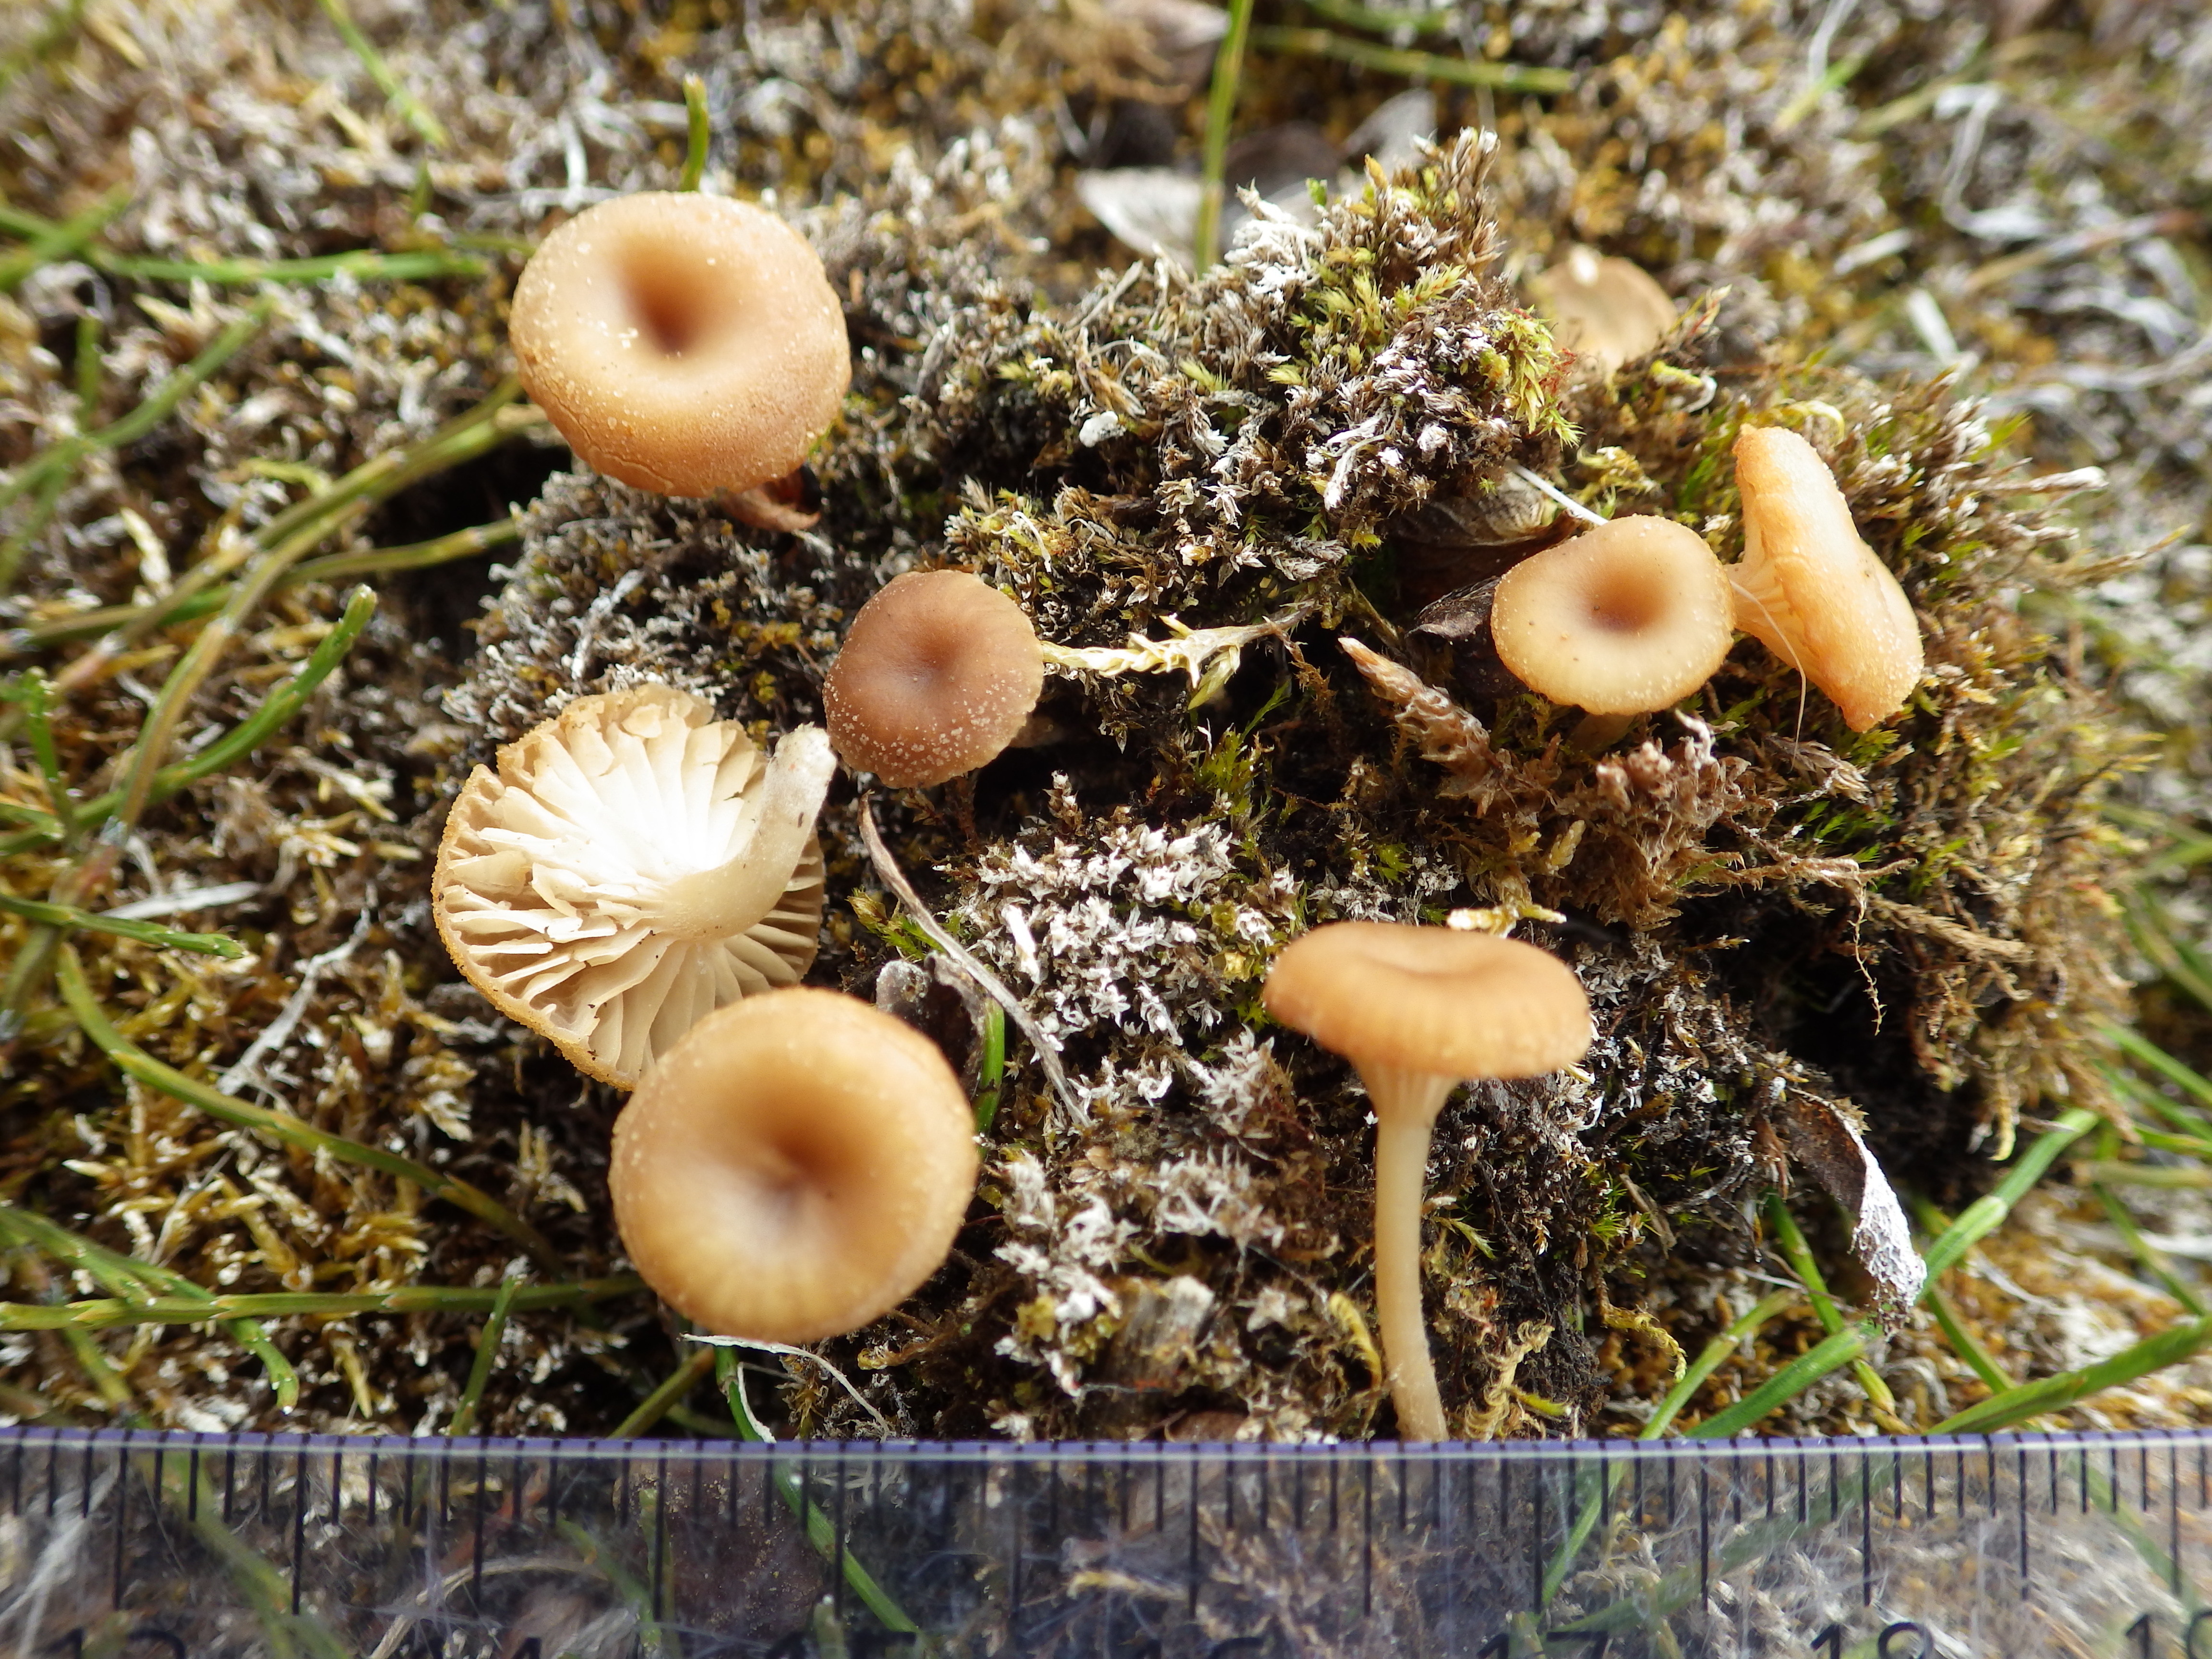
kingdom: Fungi
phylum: Basidiomycota
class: Agaricomycetes
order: Agaricales
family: Tricholomataceae
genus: Omphalina
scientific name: Omphalina
